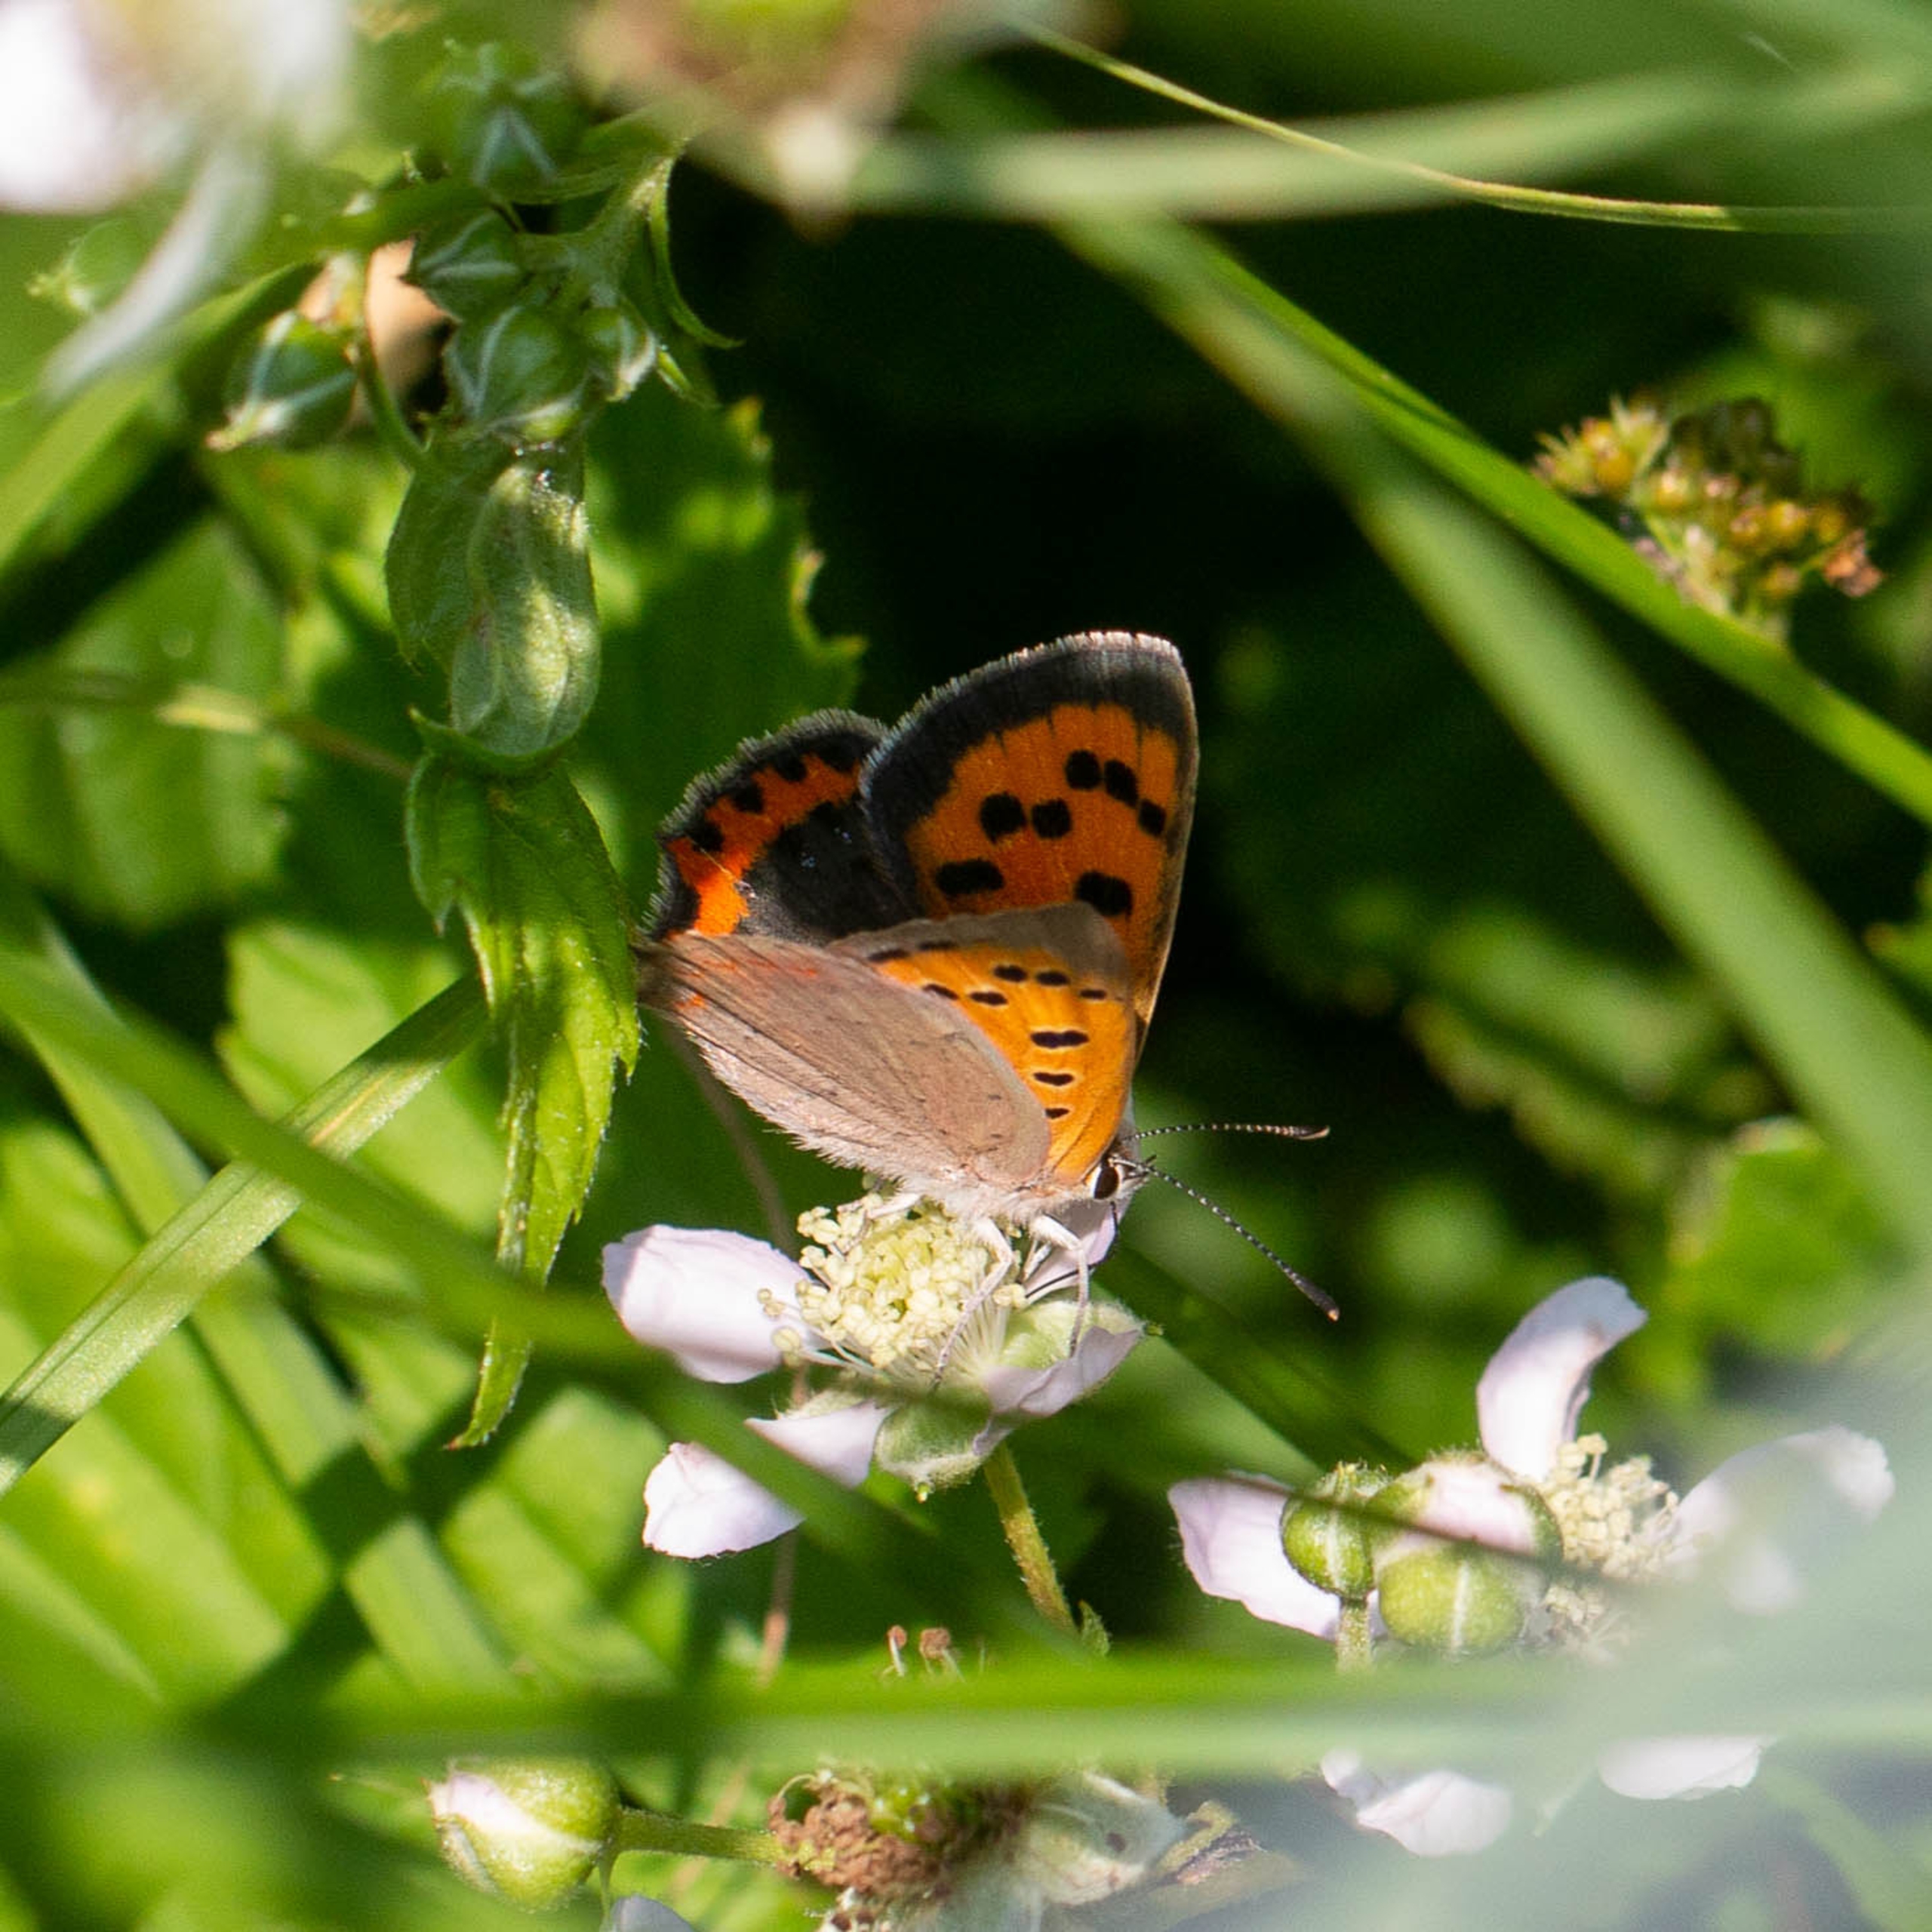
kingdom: Animalia
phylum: Arthropoda
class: Insecta
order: Lepidoptera
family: Lycaenidae
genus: Lycaena
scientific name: Lycaena phlaeas
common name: Lille ildfugl
